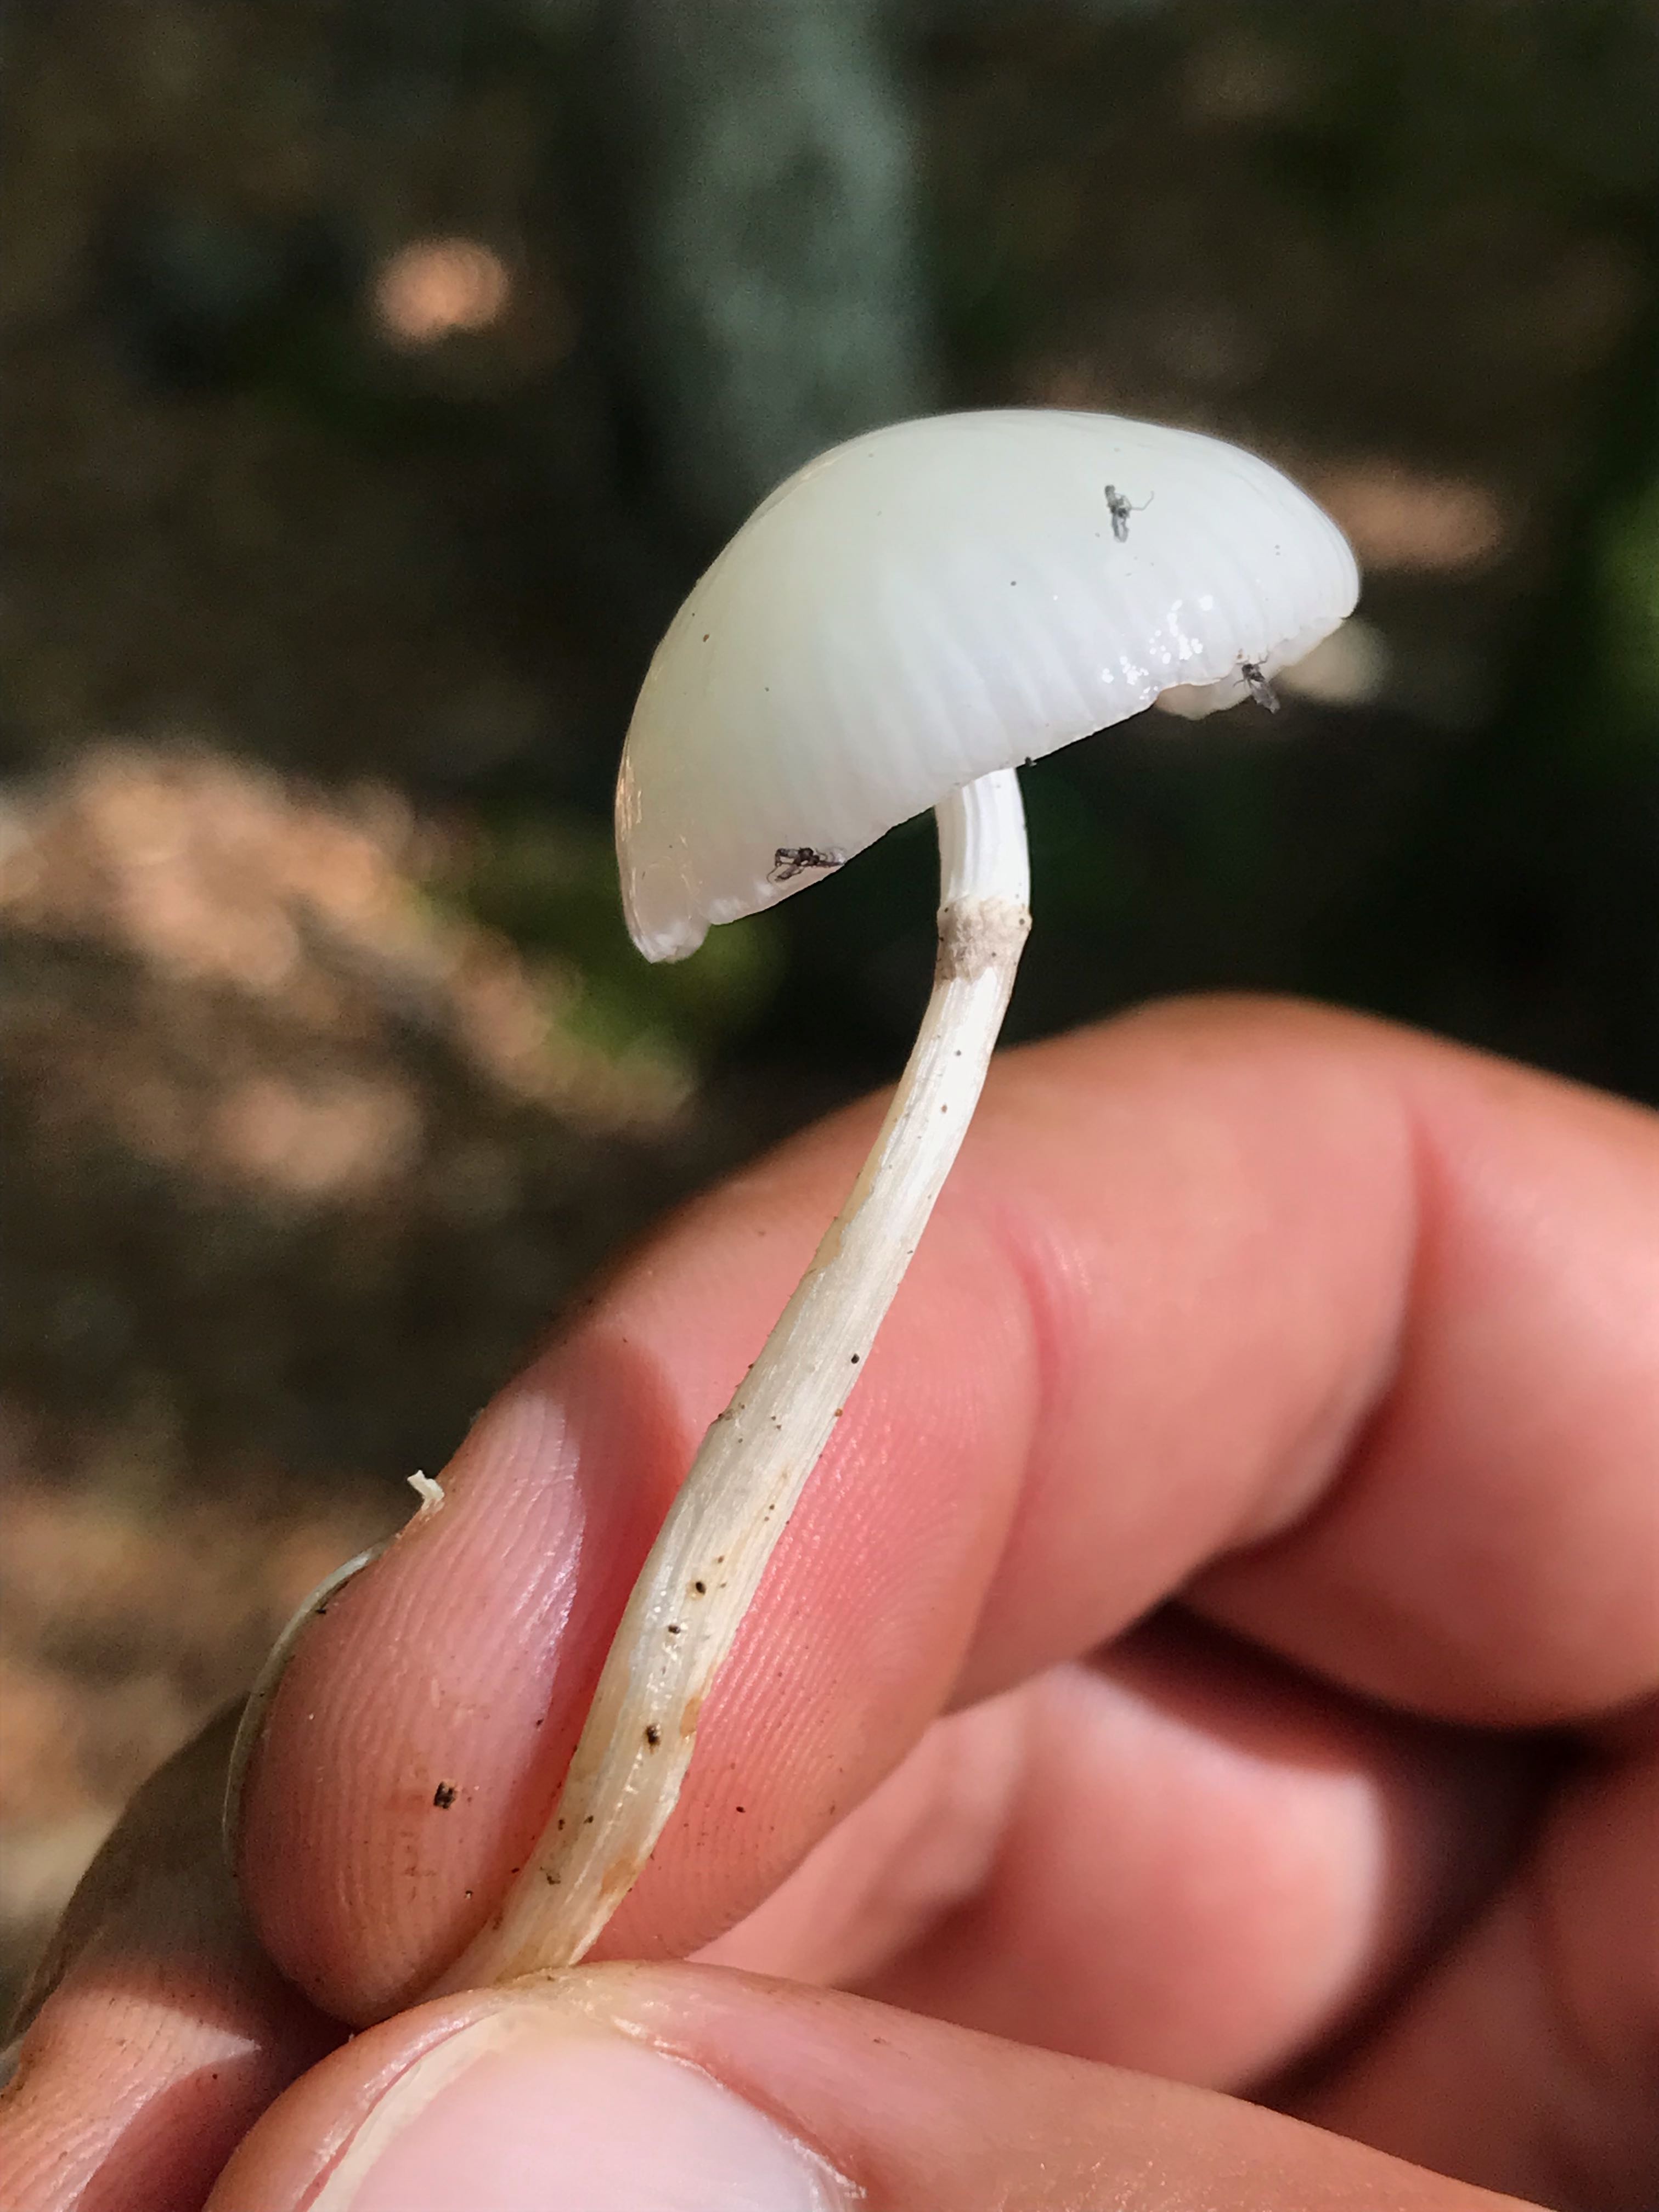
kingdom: Fungi
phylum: Basidiomycota
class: Agaricomycetes
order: Agaricales
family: Physalacriaceae
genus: Mucidula
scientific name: Mucidula mucida
